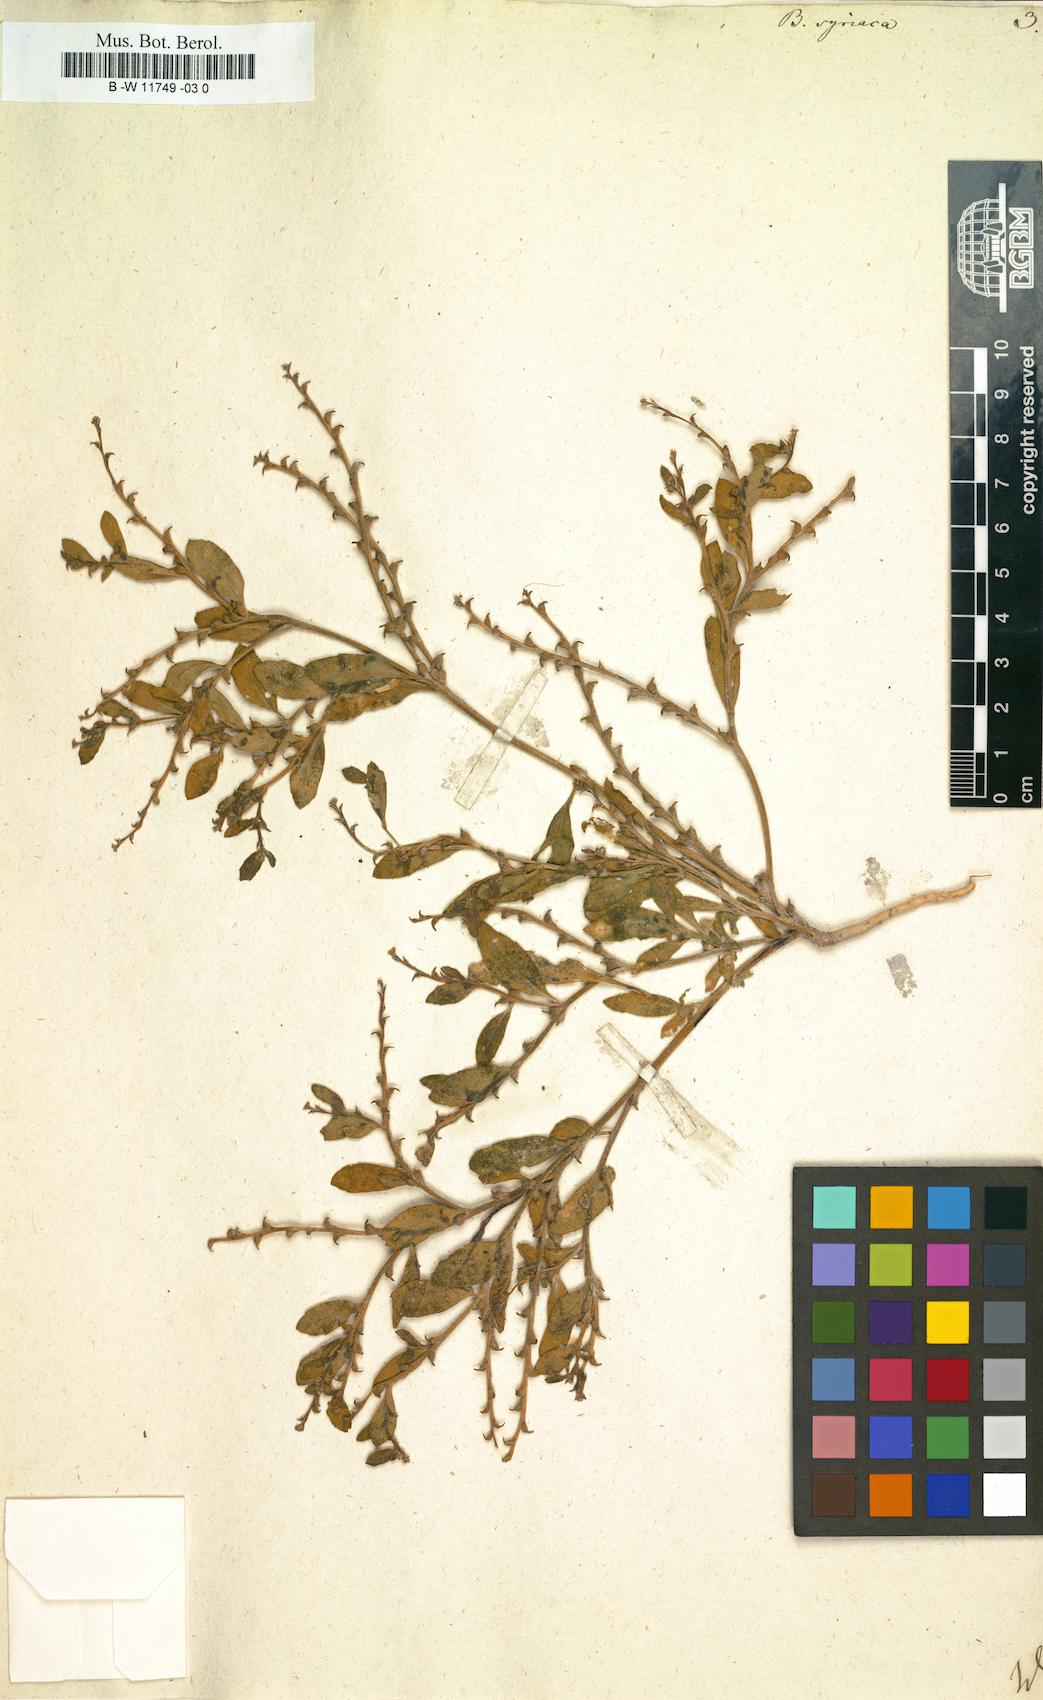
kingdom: Plantae
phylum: Tracheophyta
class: Magnoliopsida
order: Brassicales
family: Brassicaceae
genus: Euclidium
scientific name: Euclidium syriacum
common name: Syrian mustard
